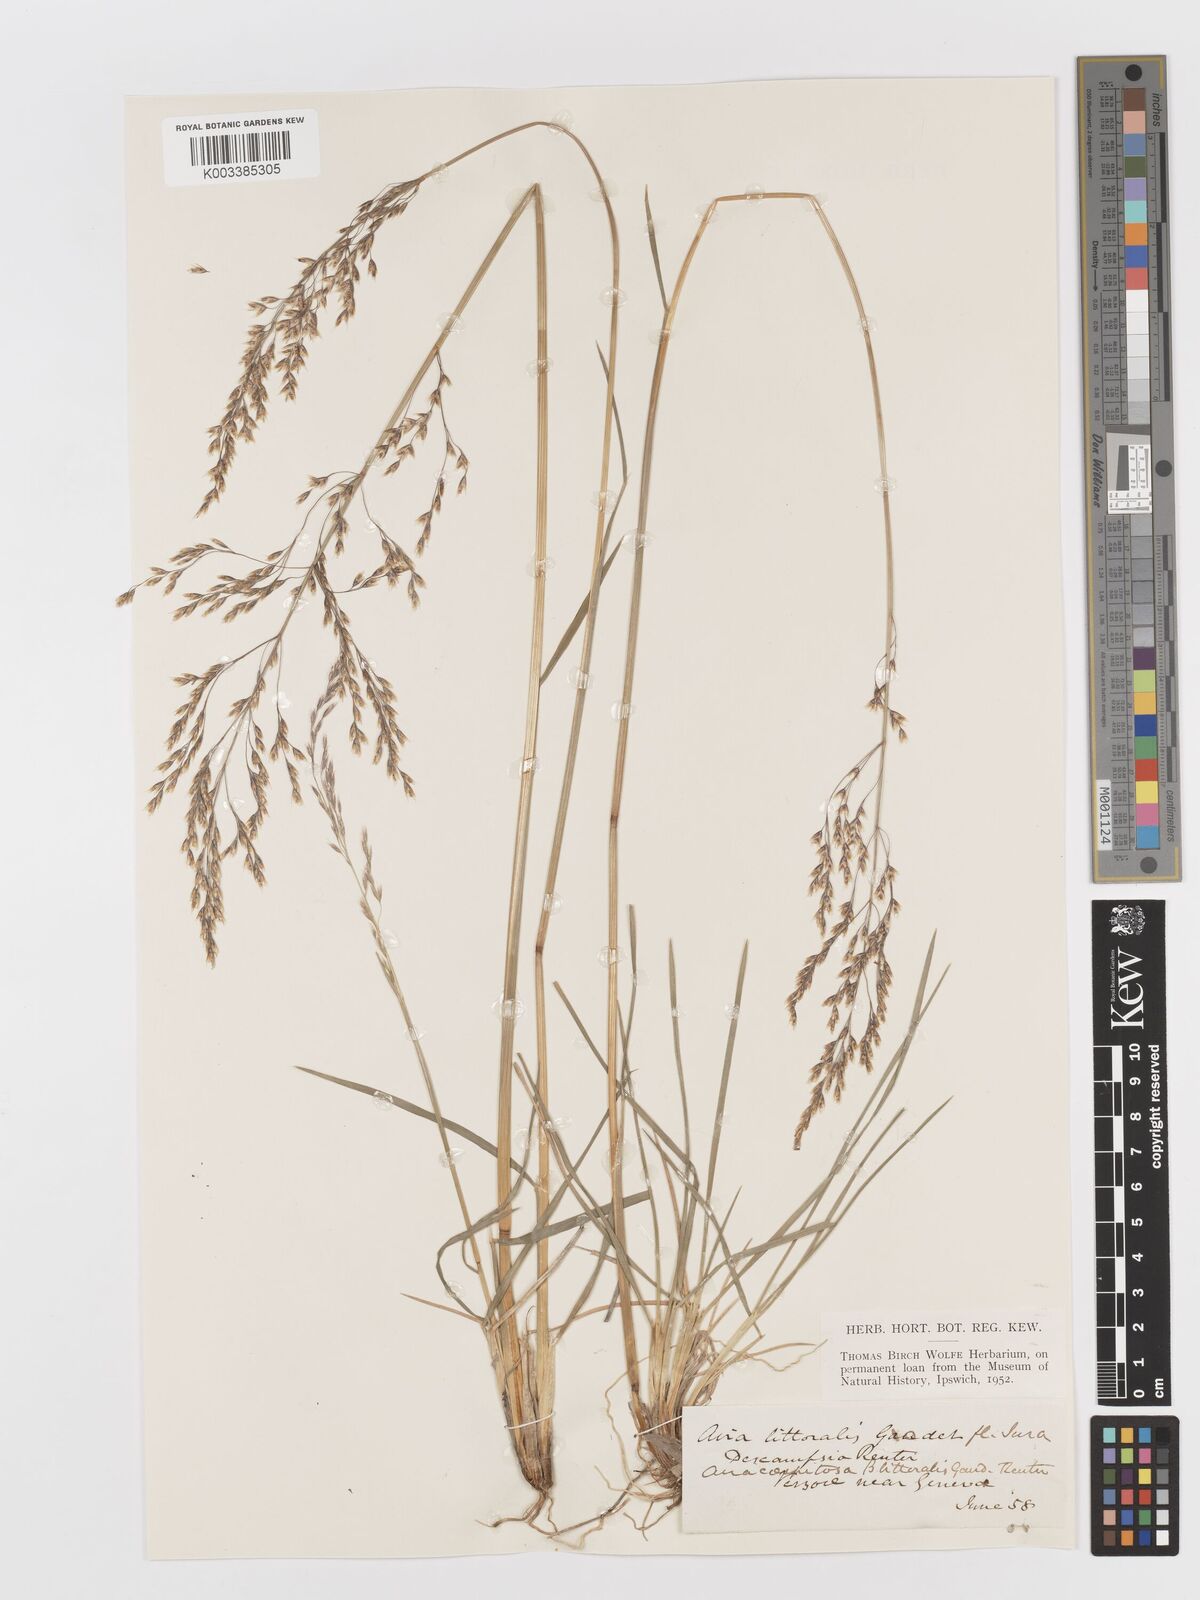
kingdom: Plantae
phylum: Tracheophyta
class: Liliopsida
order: Poales
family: Poaceae
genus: Deschampsia
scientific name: Deschampsia cespitosa
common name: Tufted hair-grass
